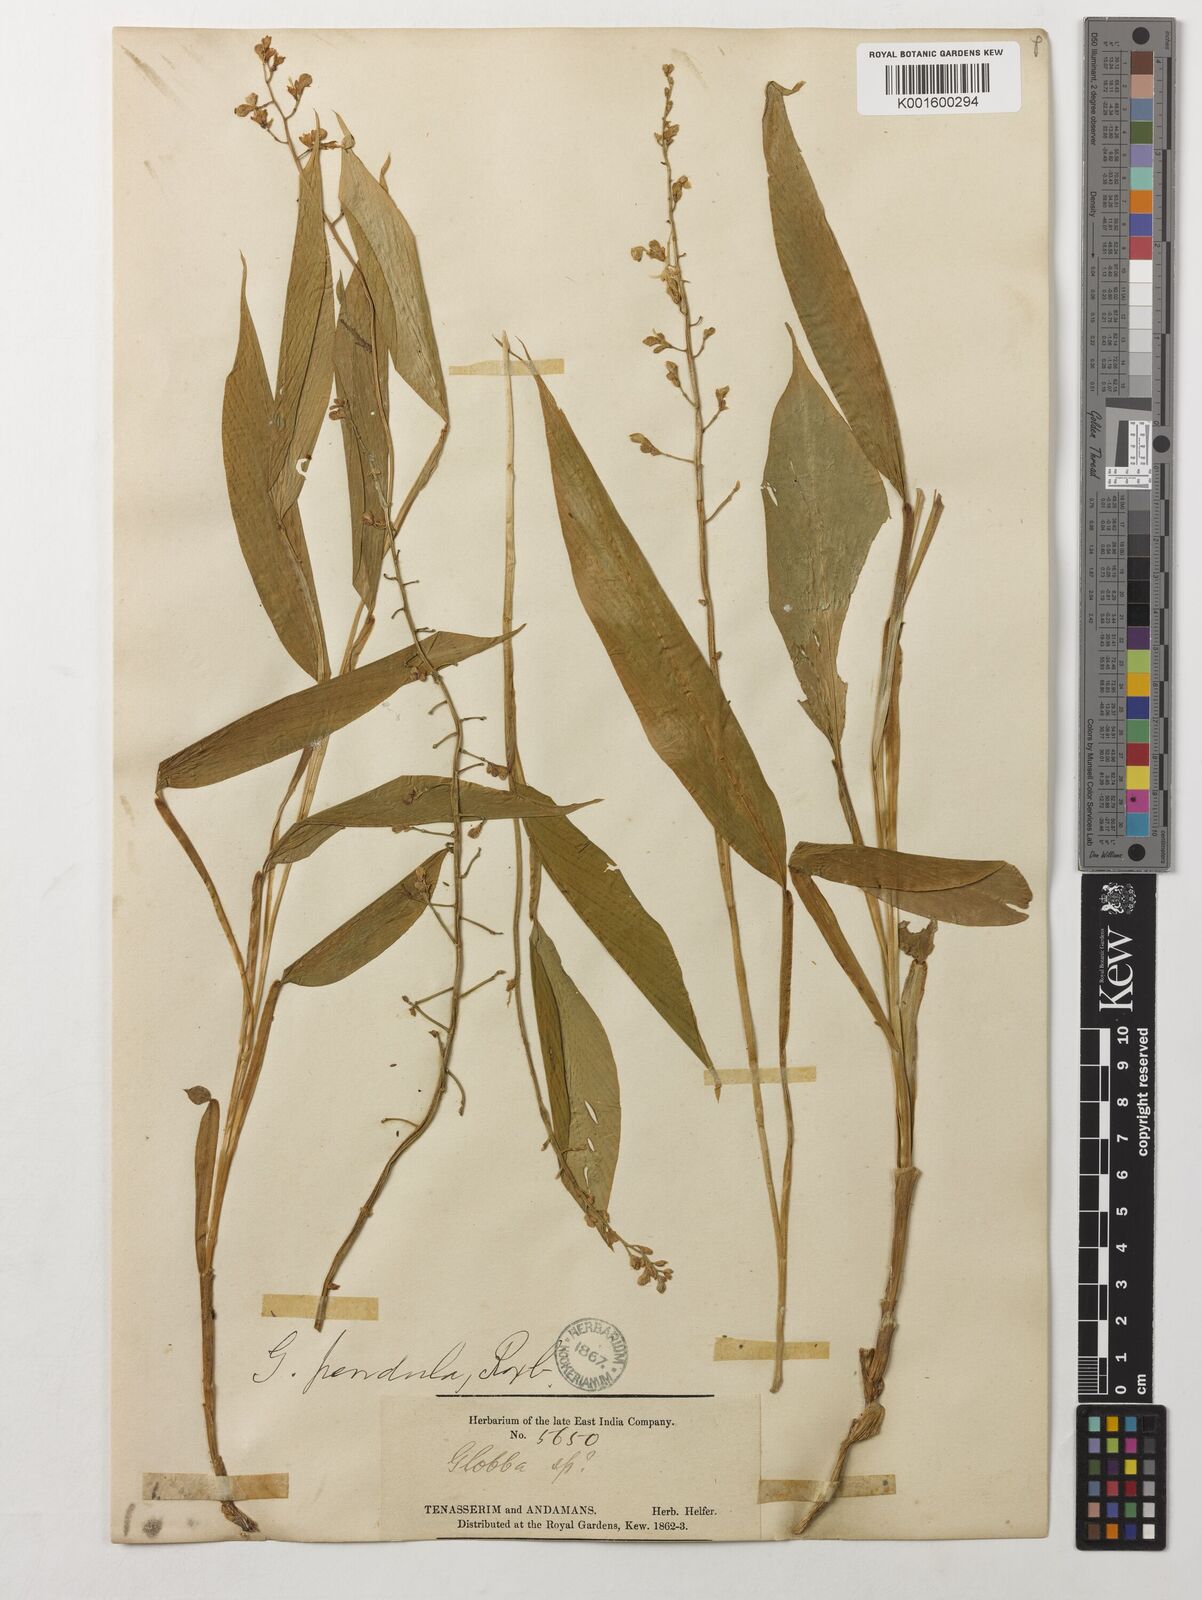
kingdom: Plantae
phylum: Tracheophyta
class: Liliopsida
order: Zingiberales
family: Zingiberaceae
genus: Globba
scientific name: Globba pendula
